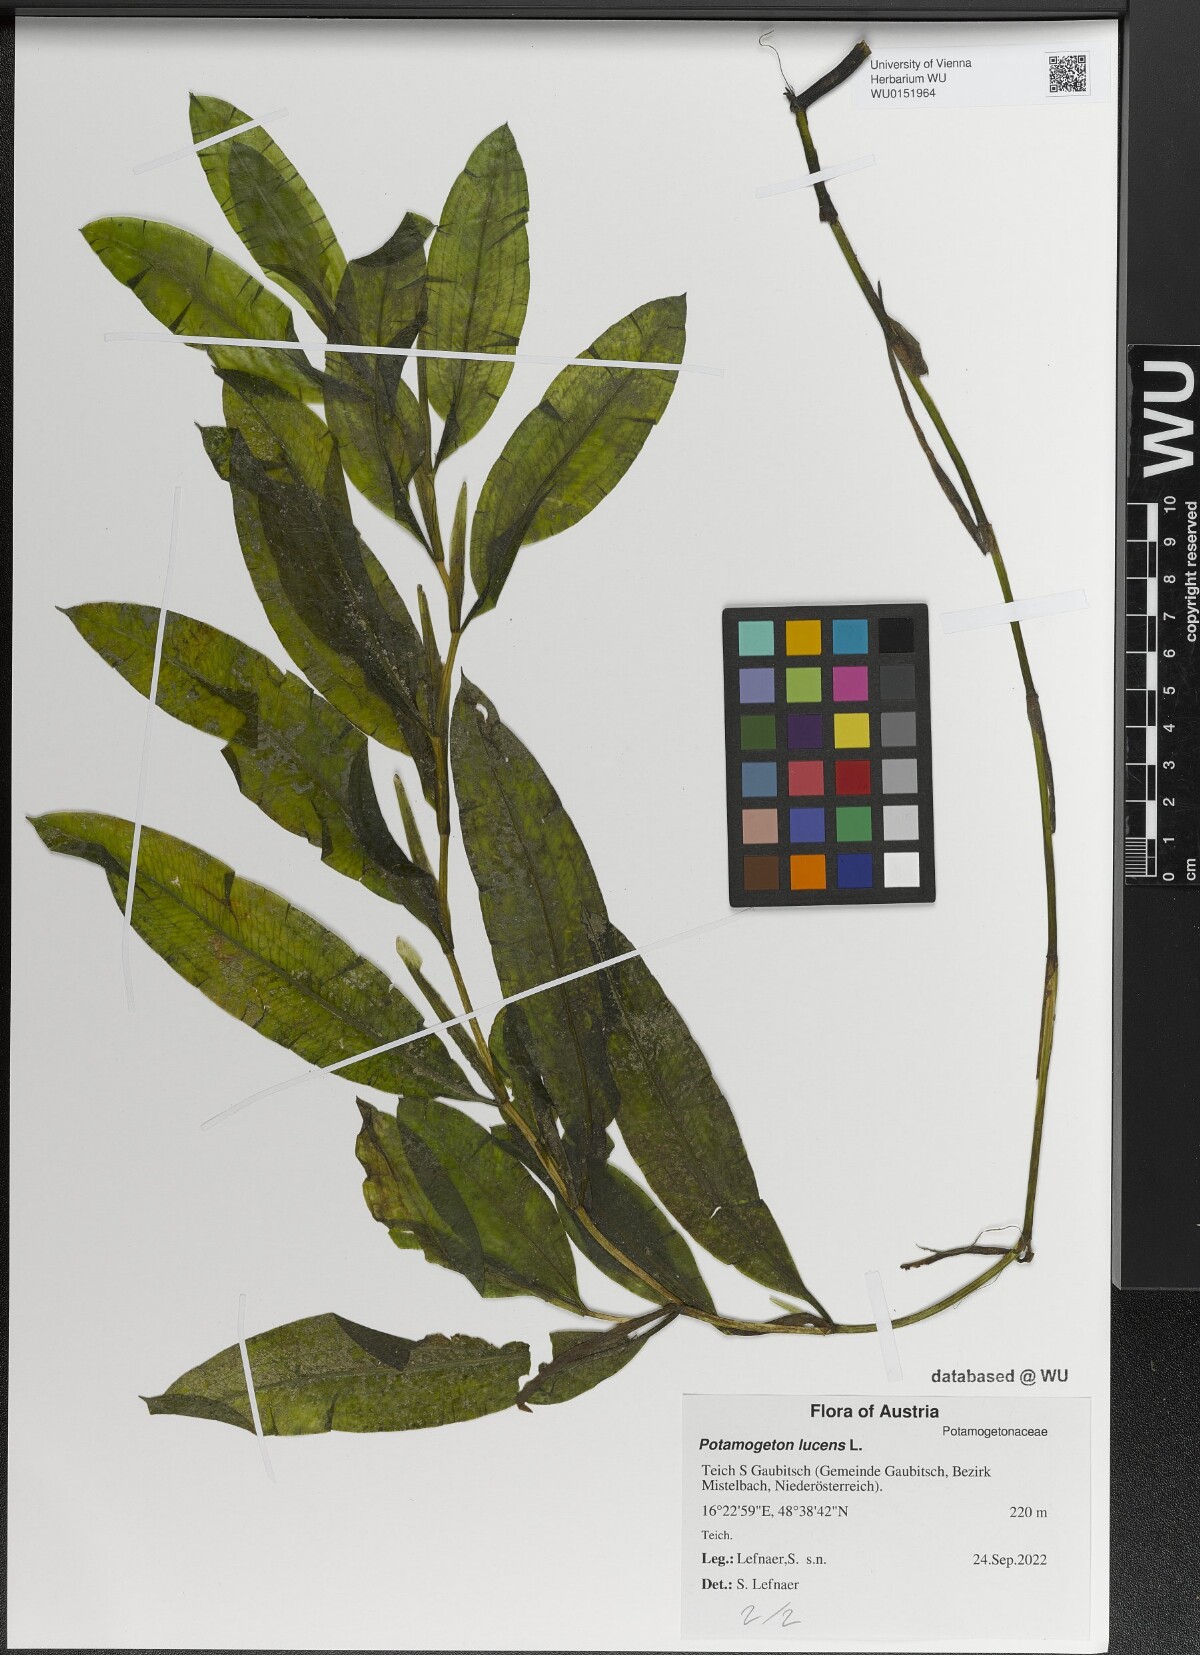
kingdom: Plantae
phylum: Tracheophyta
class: Liliopsida
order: Alismatales
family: Potamogetonaceae
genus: Potamogeton
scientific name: Potamogeton lucens
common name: Shining pondweed
